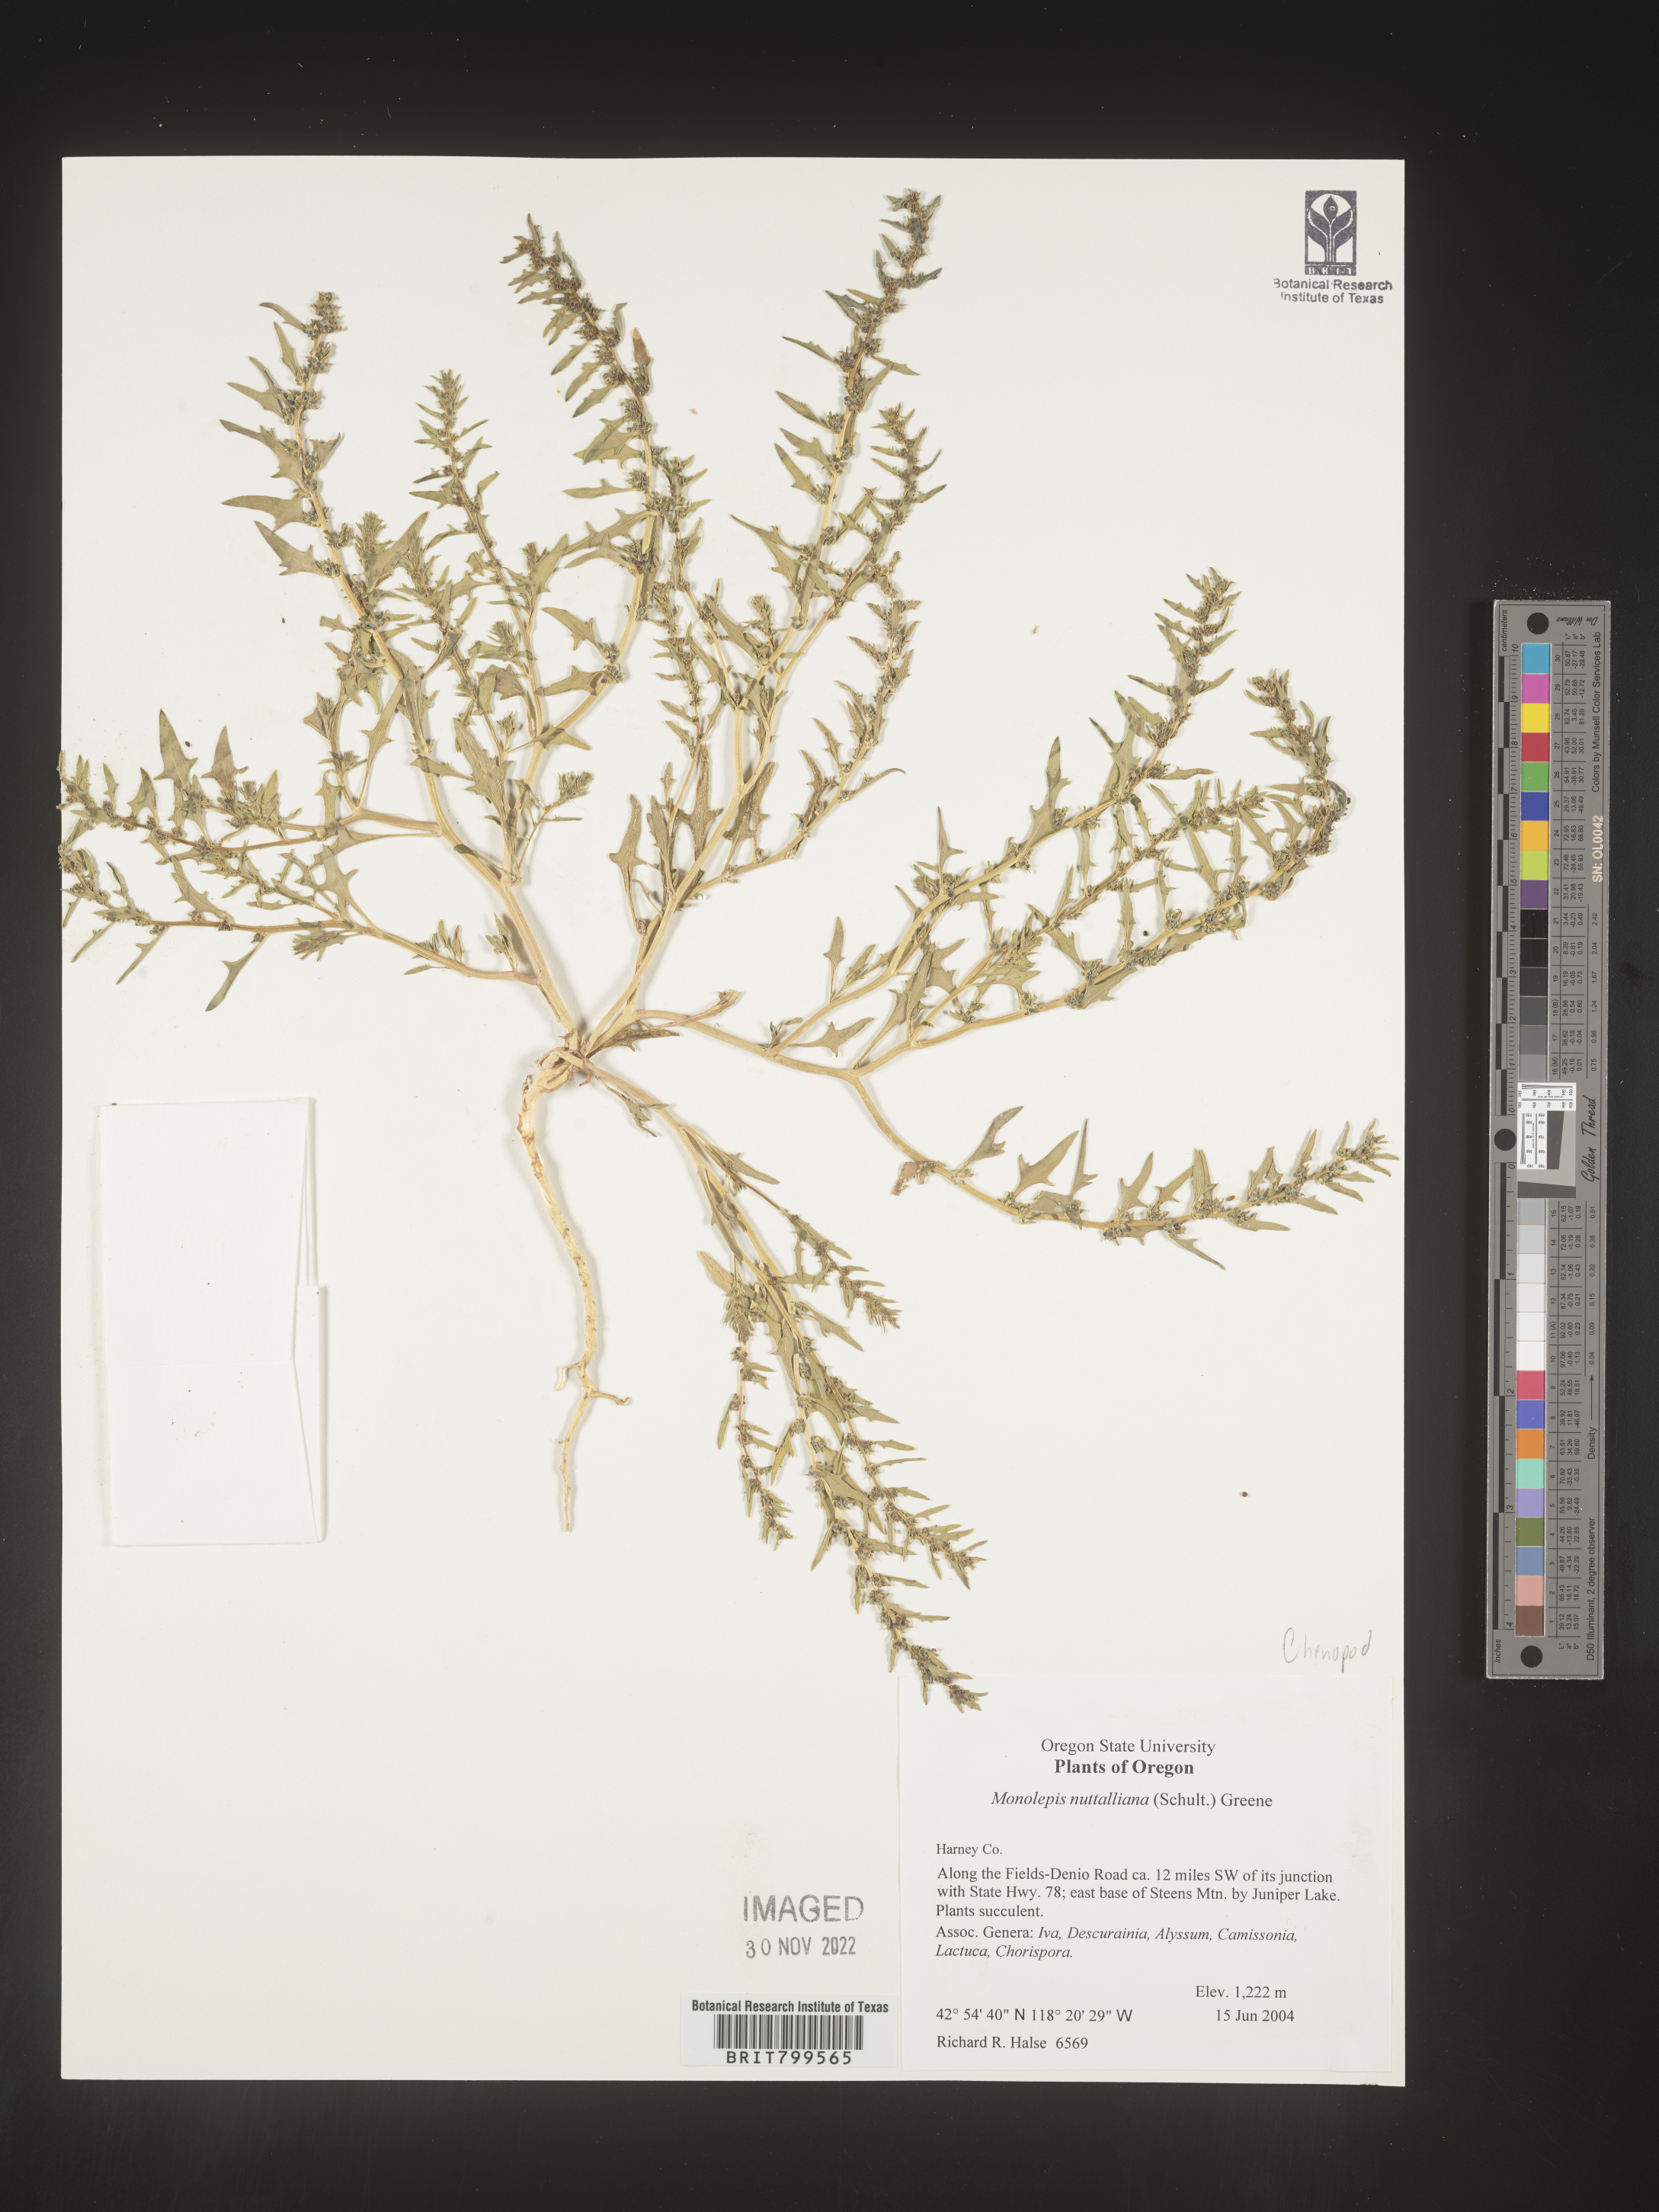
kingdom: Plantae
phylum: Tracheophyta
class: Magnoliopsida
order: Caryophyllales
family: Amaranthaceae
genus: Blitum
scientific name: Blitum
